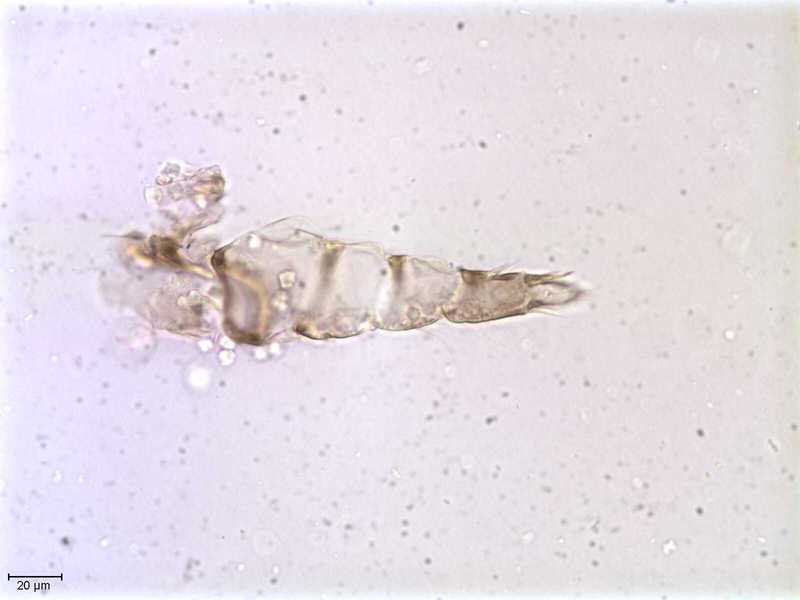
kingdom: Animalia
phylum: Arthropoda
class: Arachnida
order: Mesostigmata
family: Halarachnidae
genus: Orthohalarachne
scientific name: Orthohalarachne letalis
